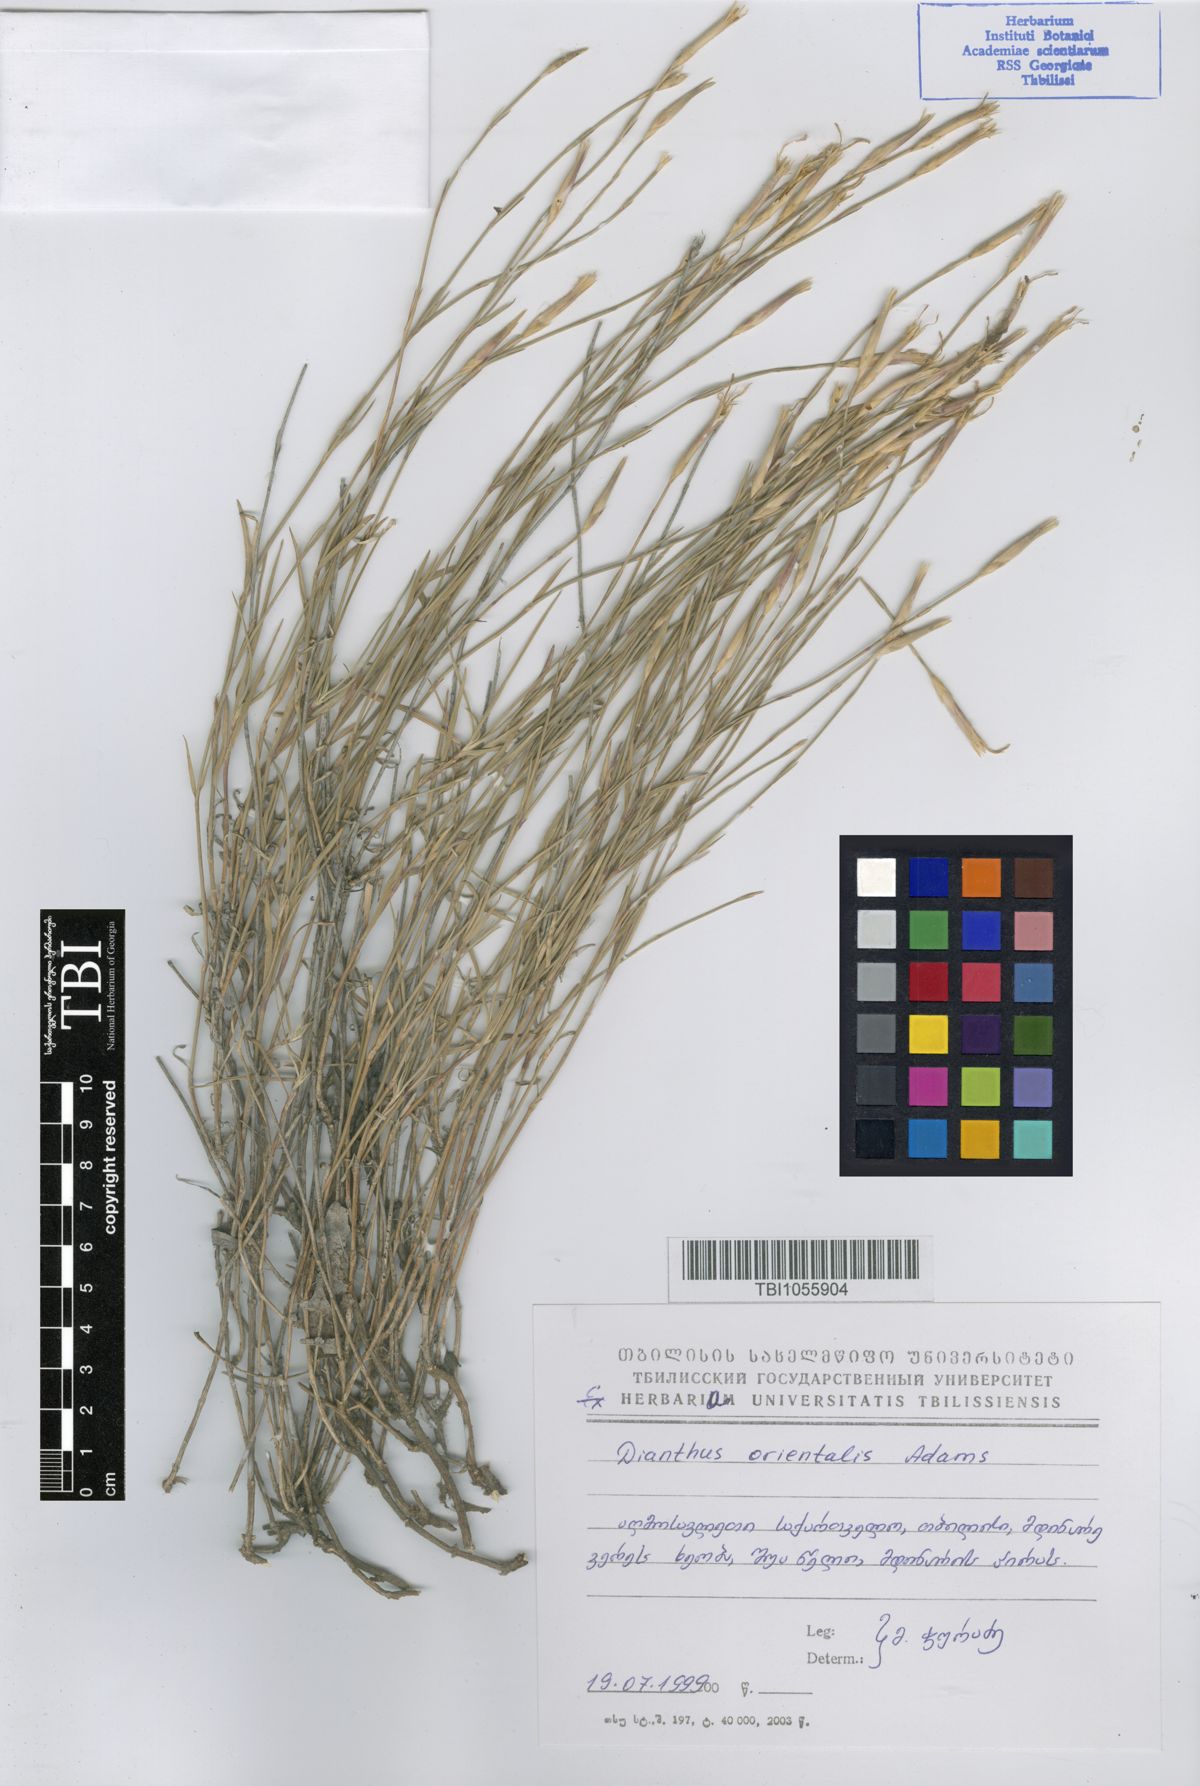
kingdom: Plantae
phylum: Tracheophyta
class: Magnoliopsida
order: Caryophyllales
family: Caryophyllaceae
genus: Dianthus
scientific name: Dianthus orientalis
